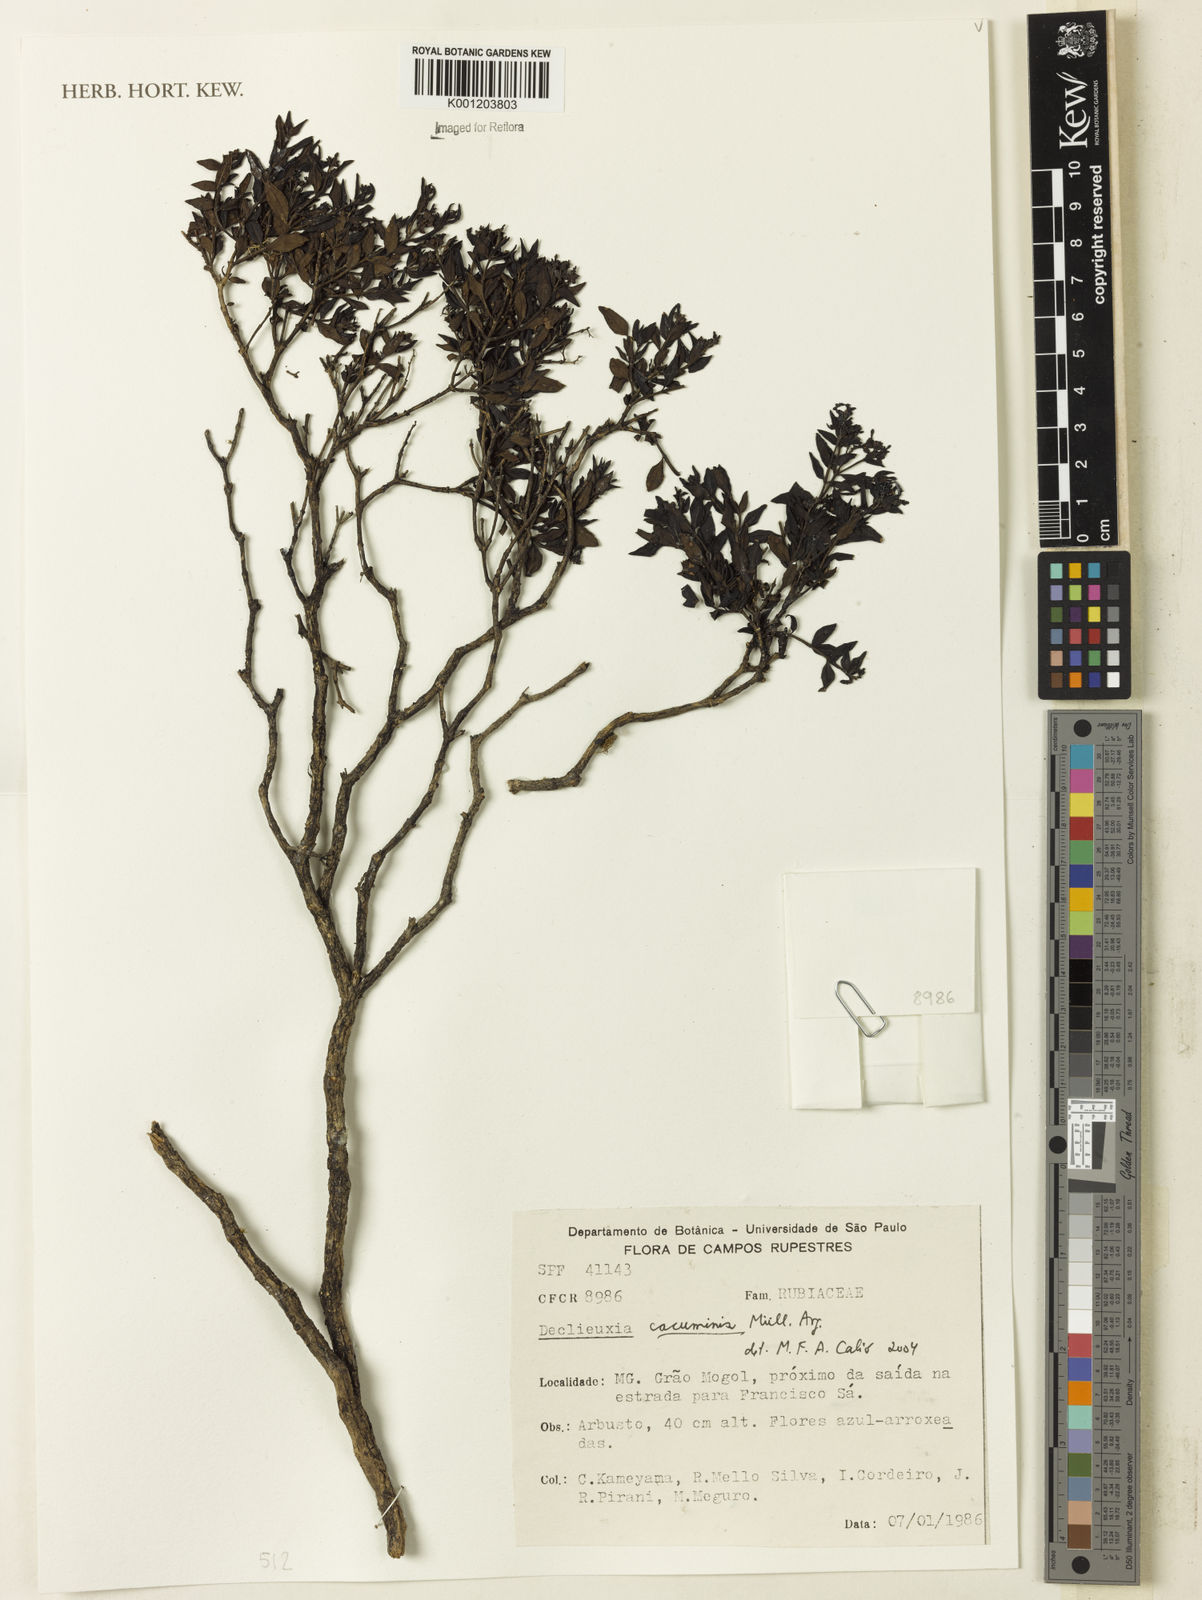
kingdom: Plantae
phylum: Tracheophyta
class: Magnoliopsida
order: Gentianales
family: Rubiaceae
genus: Declieuxia
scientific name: Declieuxia
